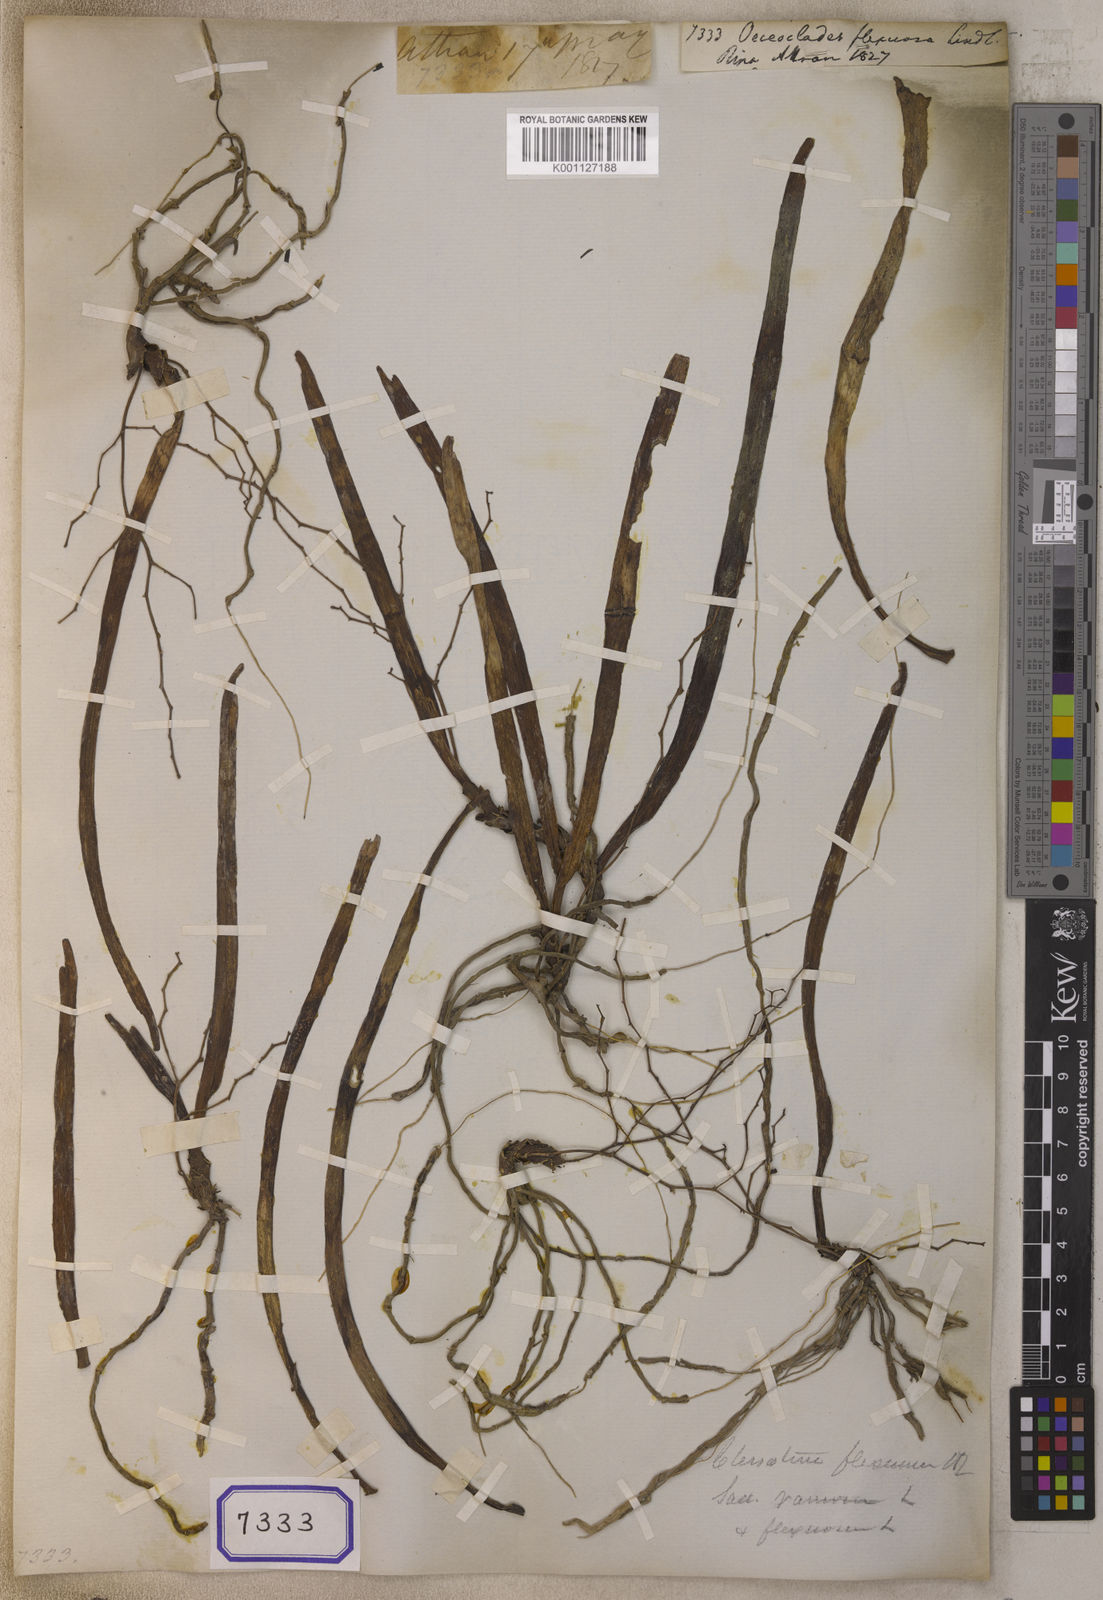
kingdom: Plantae
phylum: Tracheophyta
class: Liliopsida
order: Asparagales
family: Orchidaceae
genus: Trichoglottis
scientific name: Trichoglottis ramosa
